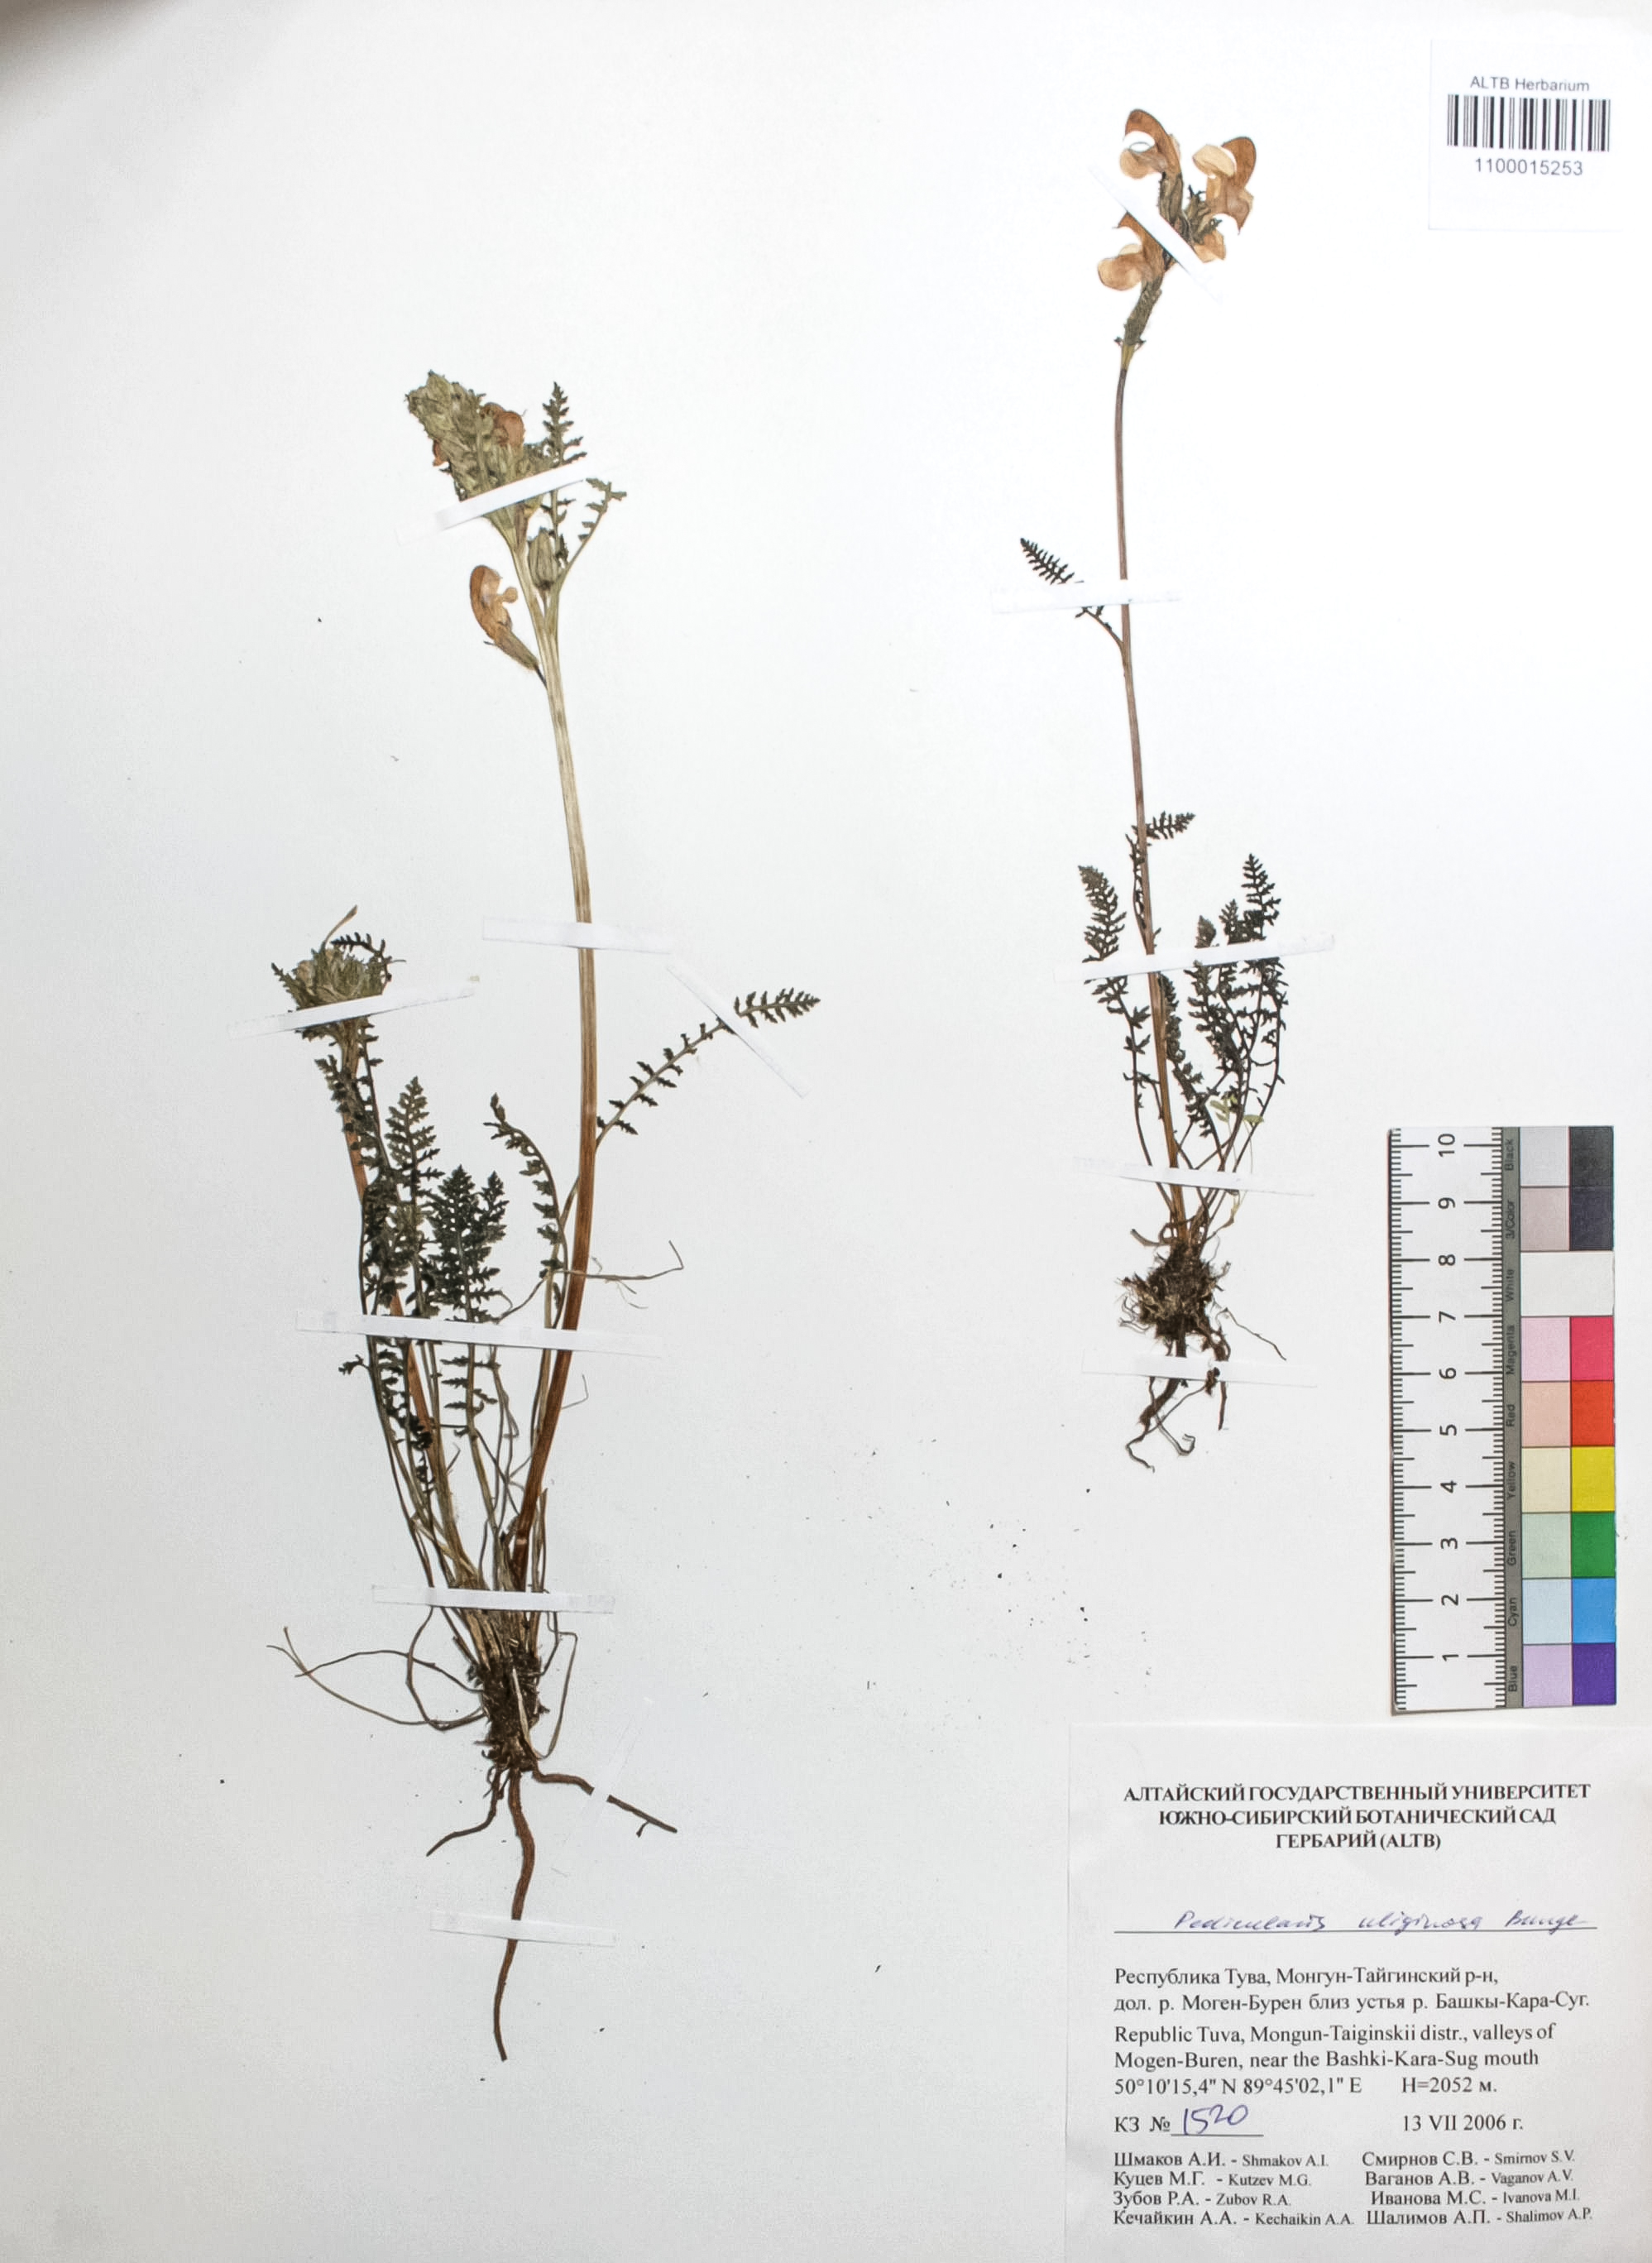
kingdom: Plantae
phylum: Tracheophyta
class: Magnoliopsida
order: Lamiales
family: Orobanchaceae
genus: Pedicularis
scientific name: Pedicularis uliginosa
